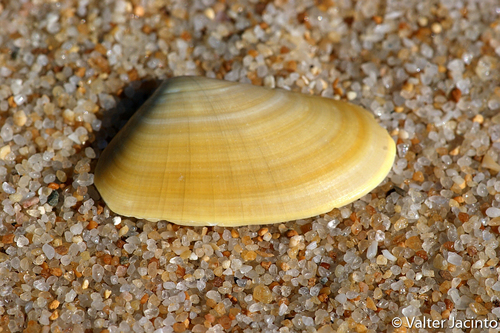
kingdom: Animalia
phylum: Mollusca
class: Bivalvia
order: Cardiida
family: Donacidae
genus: Donax
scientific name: Donax trunculus
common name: Truncate donax
